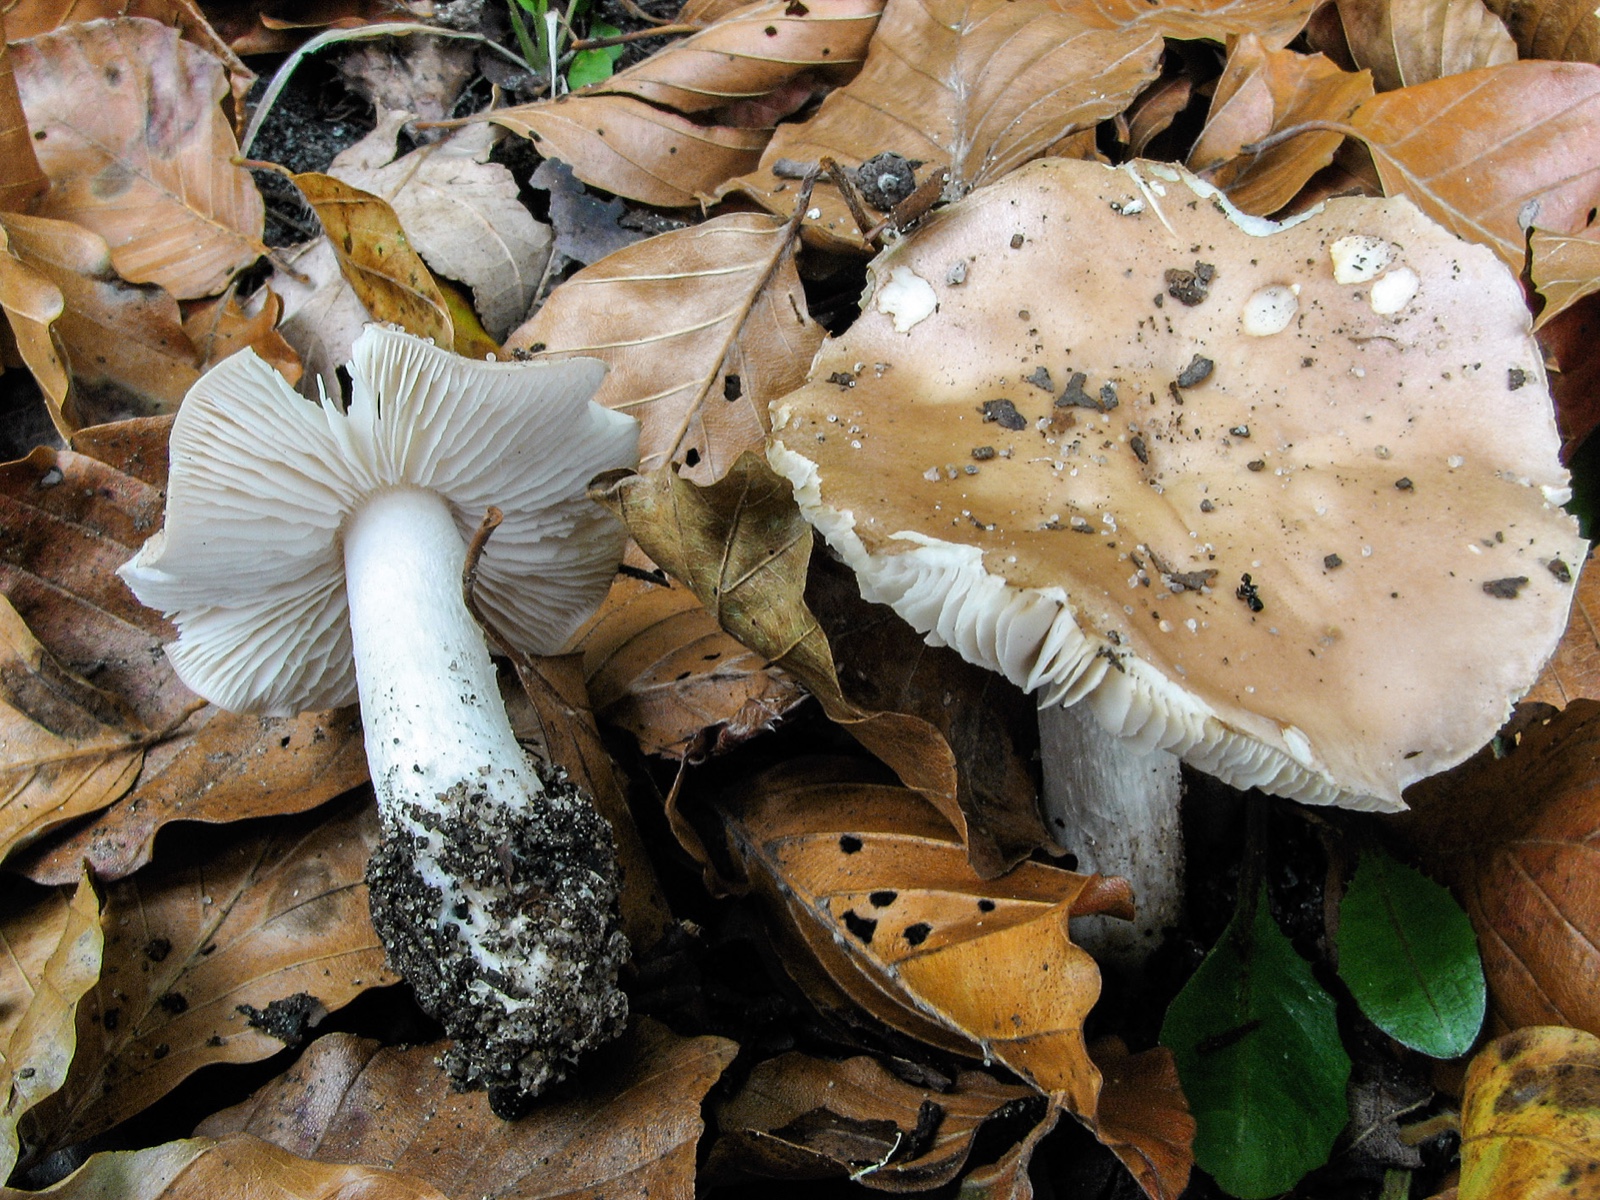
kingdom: Fungi
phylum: Basidiomycota
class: Agaricomycetes
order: Agaricales
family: Hymenogastraceae
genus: Hebeloma
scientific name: Hebeloma celatum
